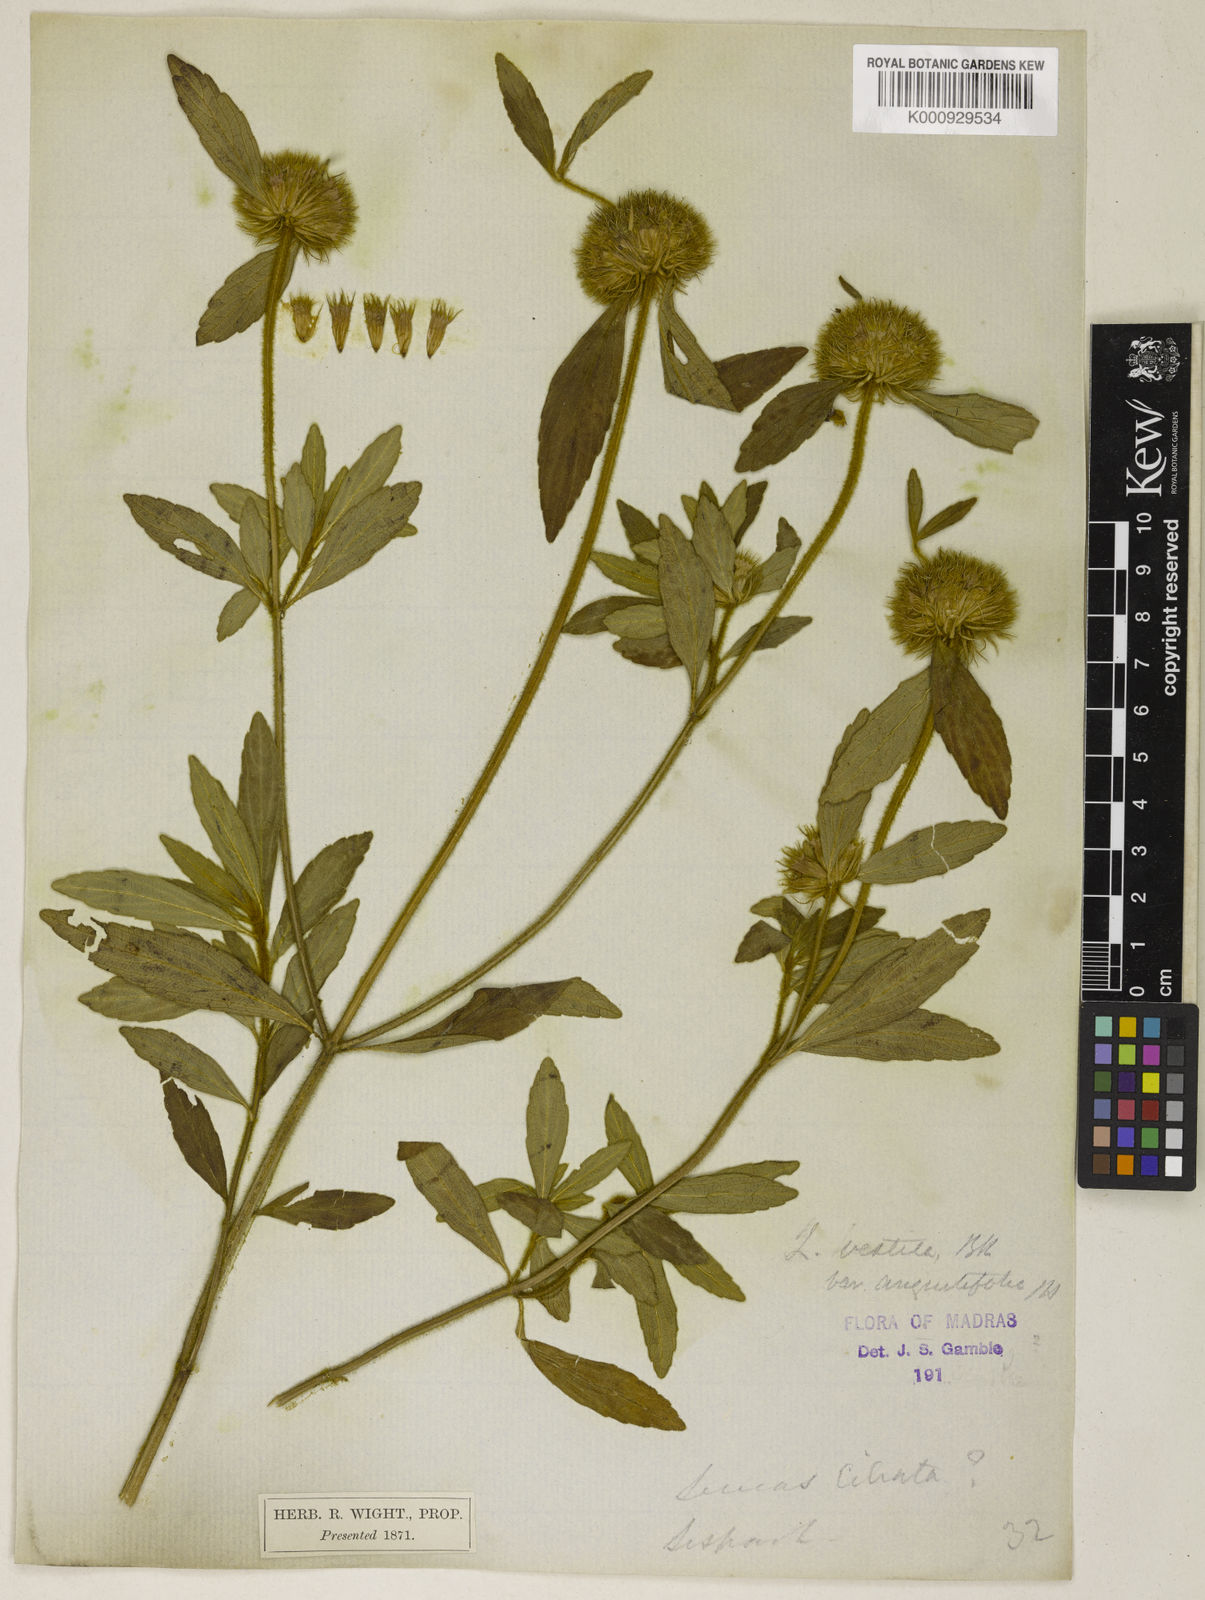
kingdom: Plantae
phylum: Tracheophyta
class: Magnoliopsida
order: Lamiales
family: Lamiaceae
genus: Leucas
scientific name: Leucas vestita
